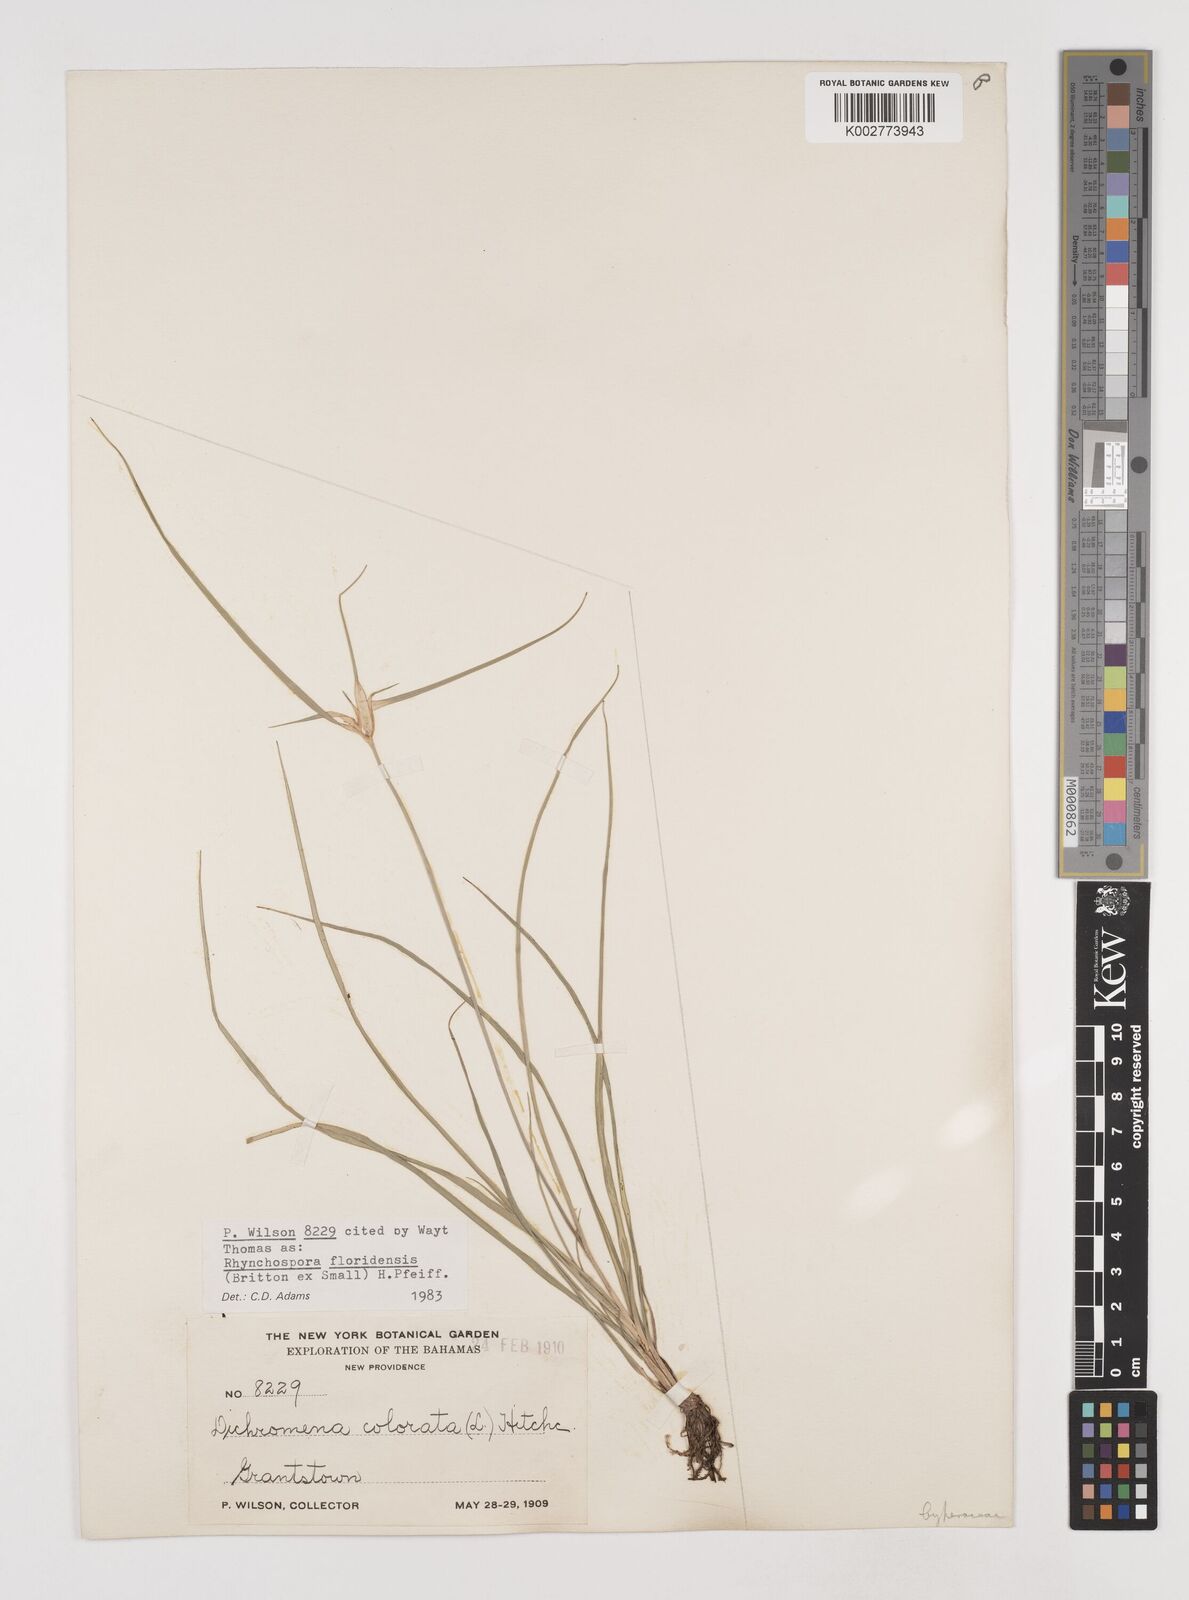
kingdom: Plantae
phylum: Tracheophyta
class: Liliopsida
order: Poales
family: Cyperaceae
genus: Rhynchospora
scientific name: Rhynchospora floridensis
